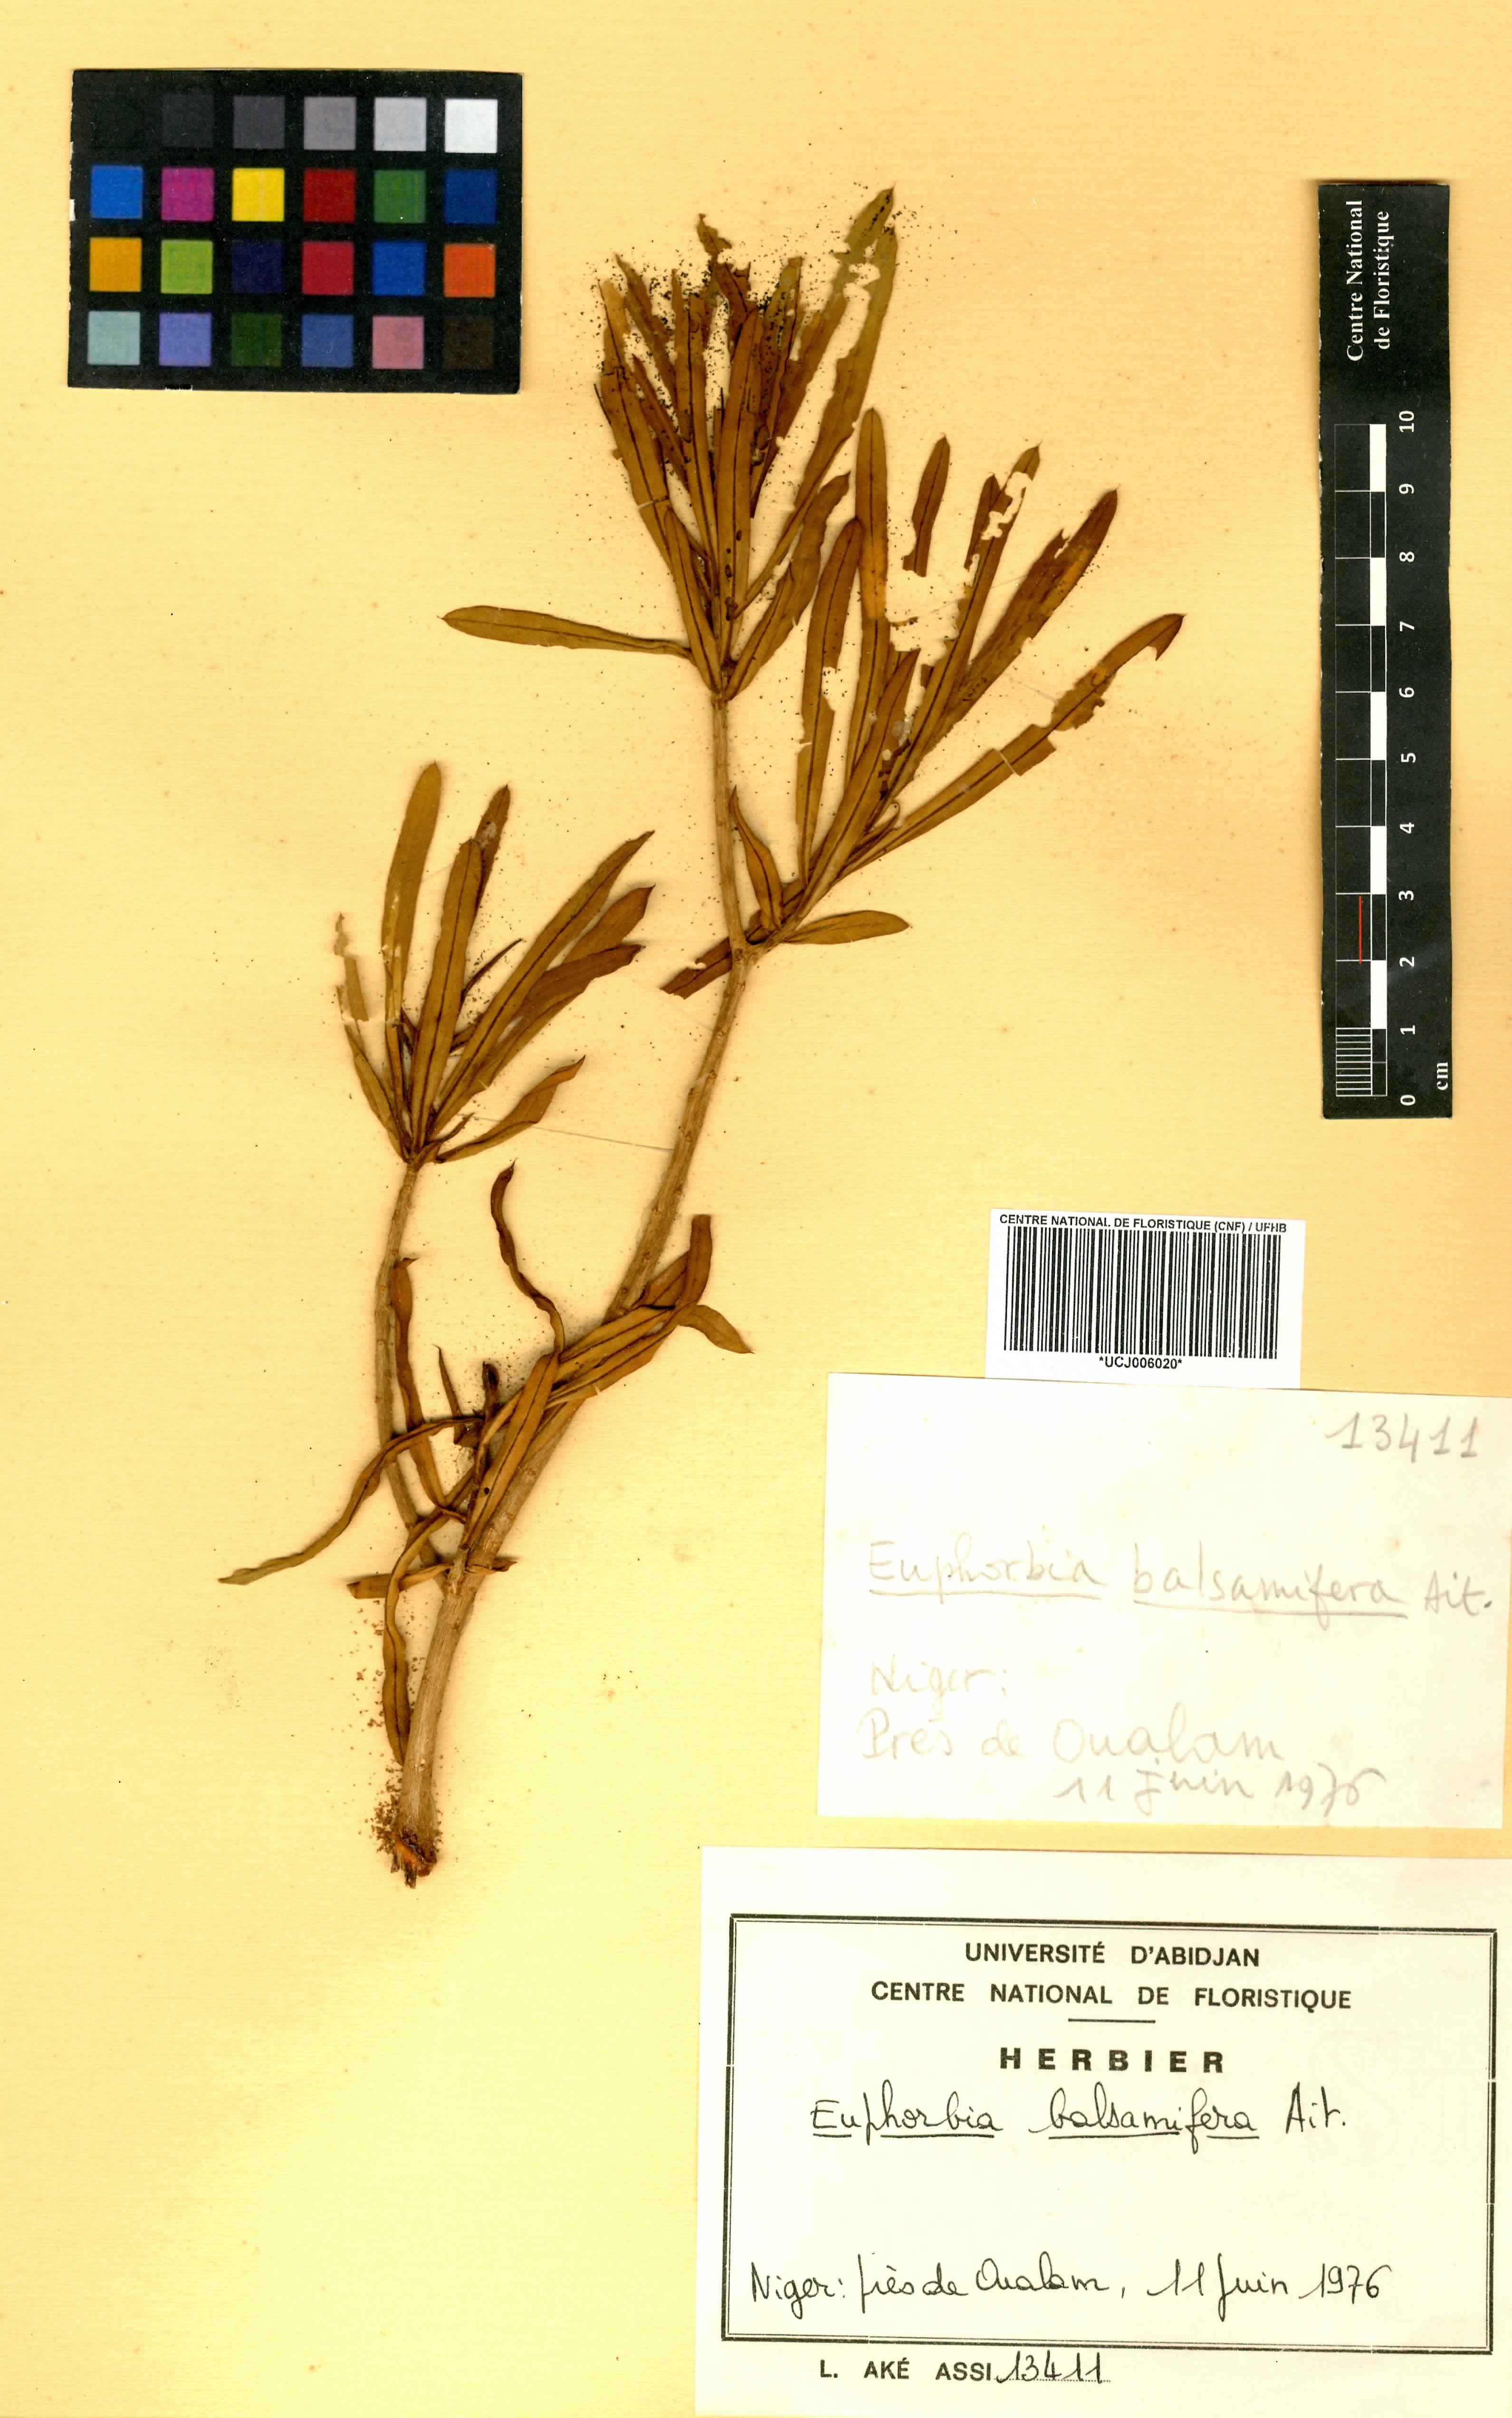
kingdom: Plantae
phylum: Tracheophyta
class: Magnoliopsida
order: Malpighiales
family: Euphorbiaceae
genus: Euphorbia
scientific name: Euphorbia balsamifera
